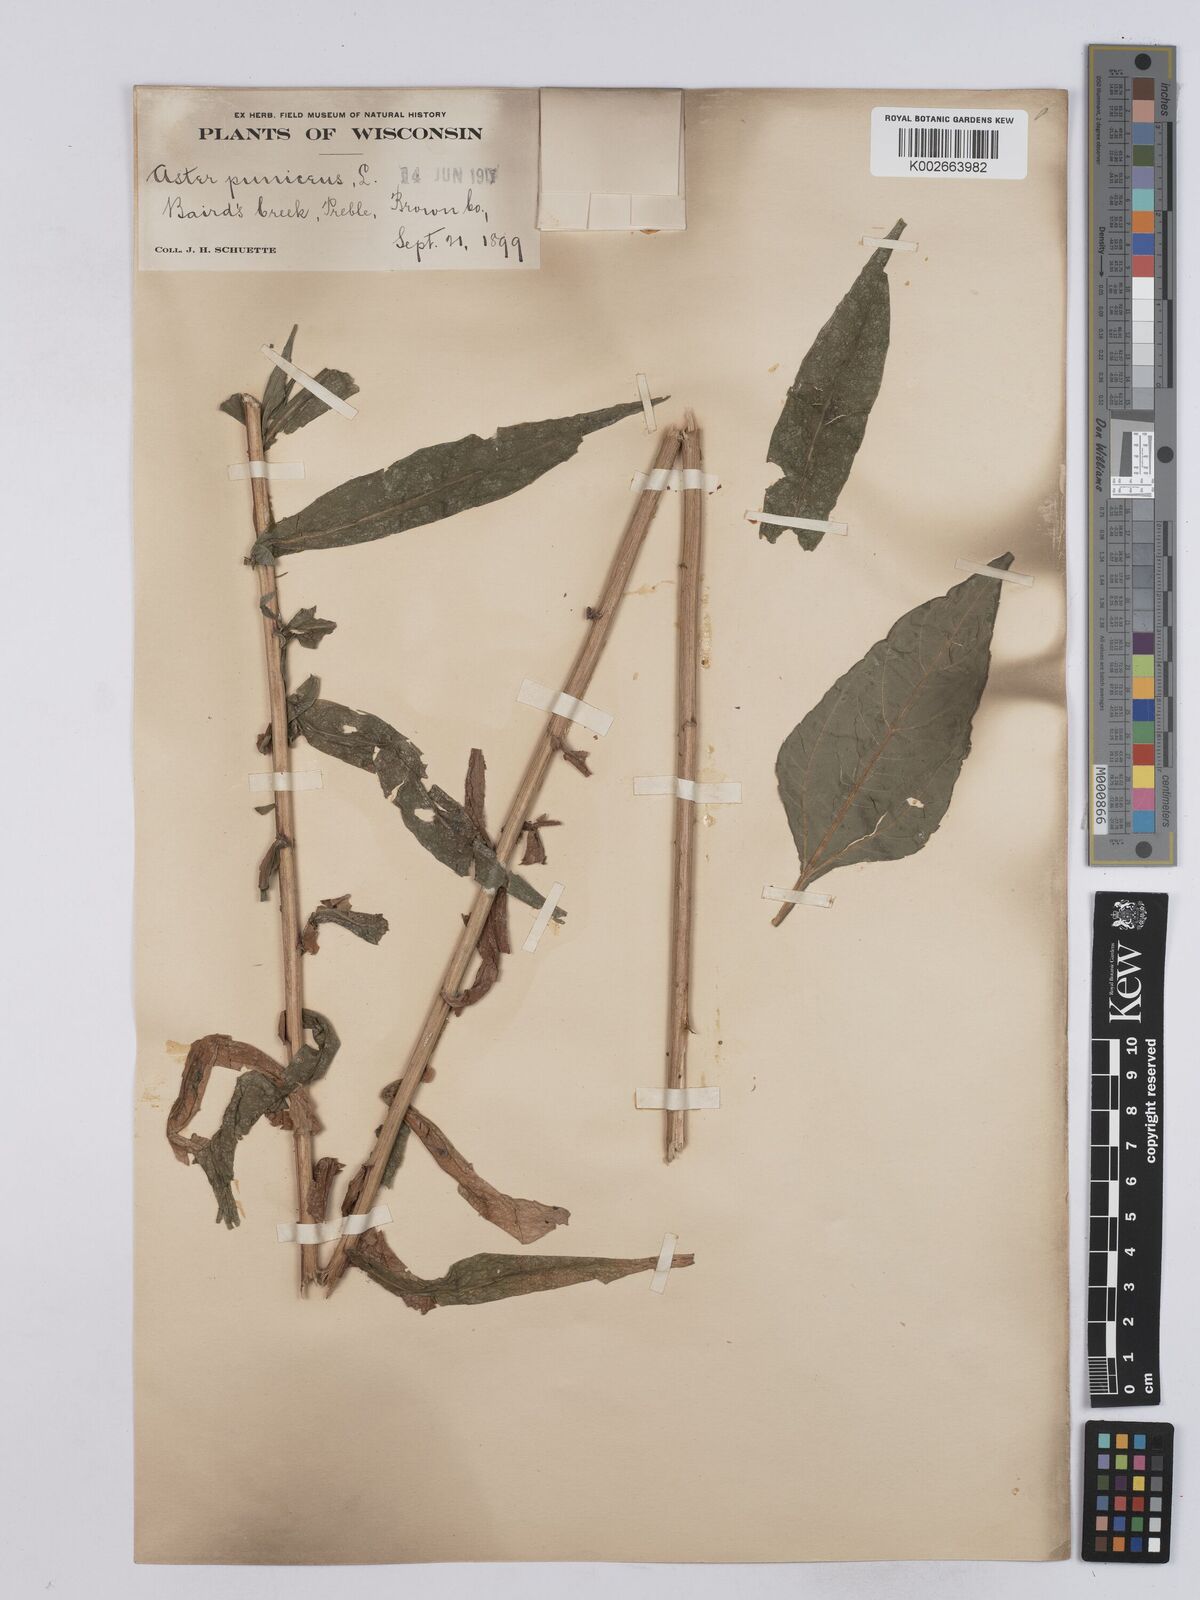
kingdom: Plantae
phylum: Tracheophyta
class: Magnoliopsida
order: Asterales
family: Asteraceae
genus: Symphyotrichum
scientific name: Symphyotrichum puniceum
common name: Bog aster
